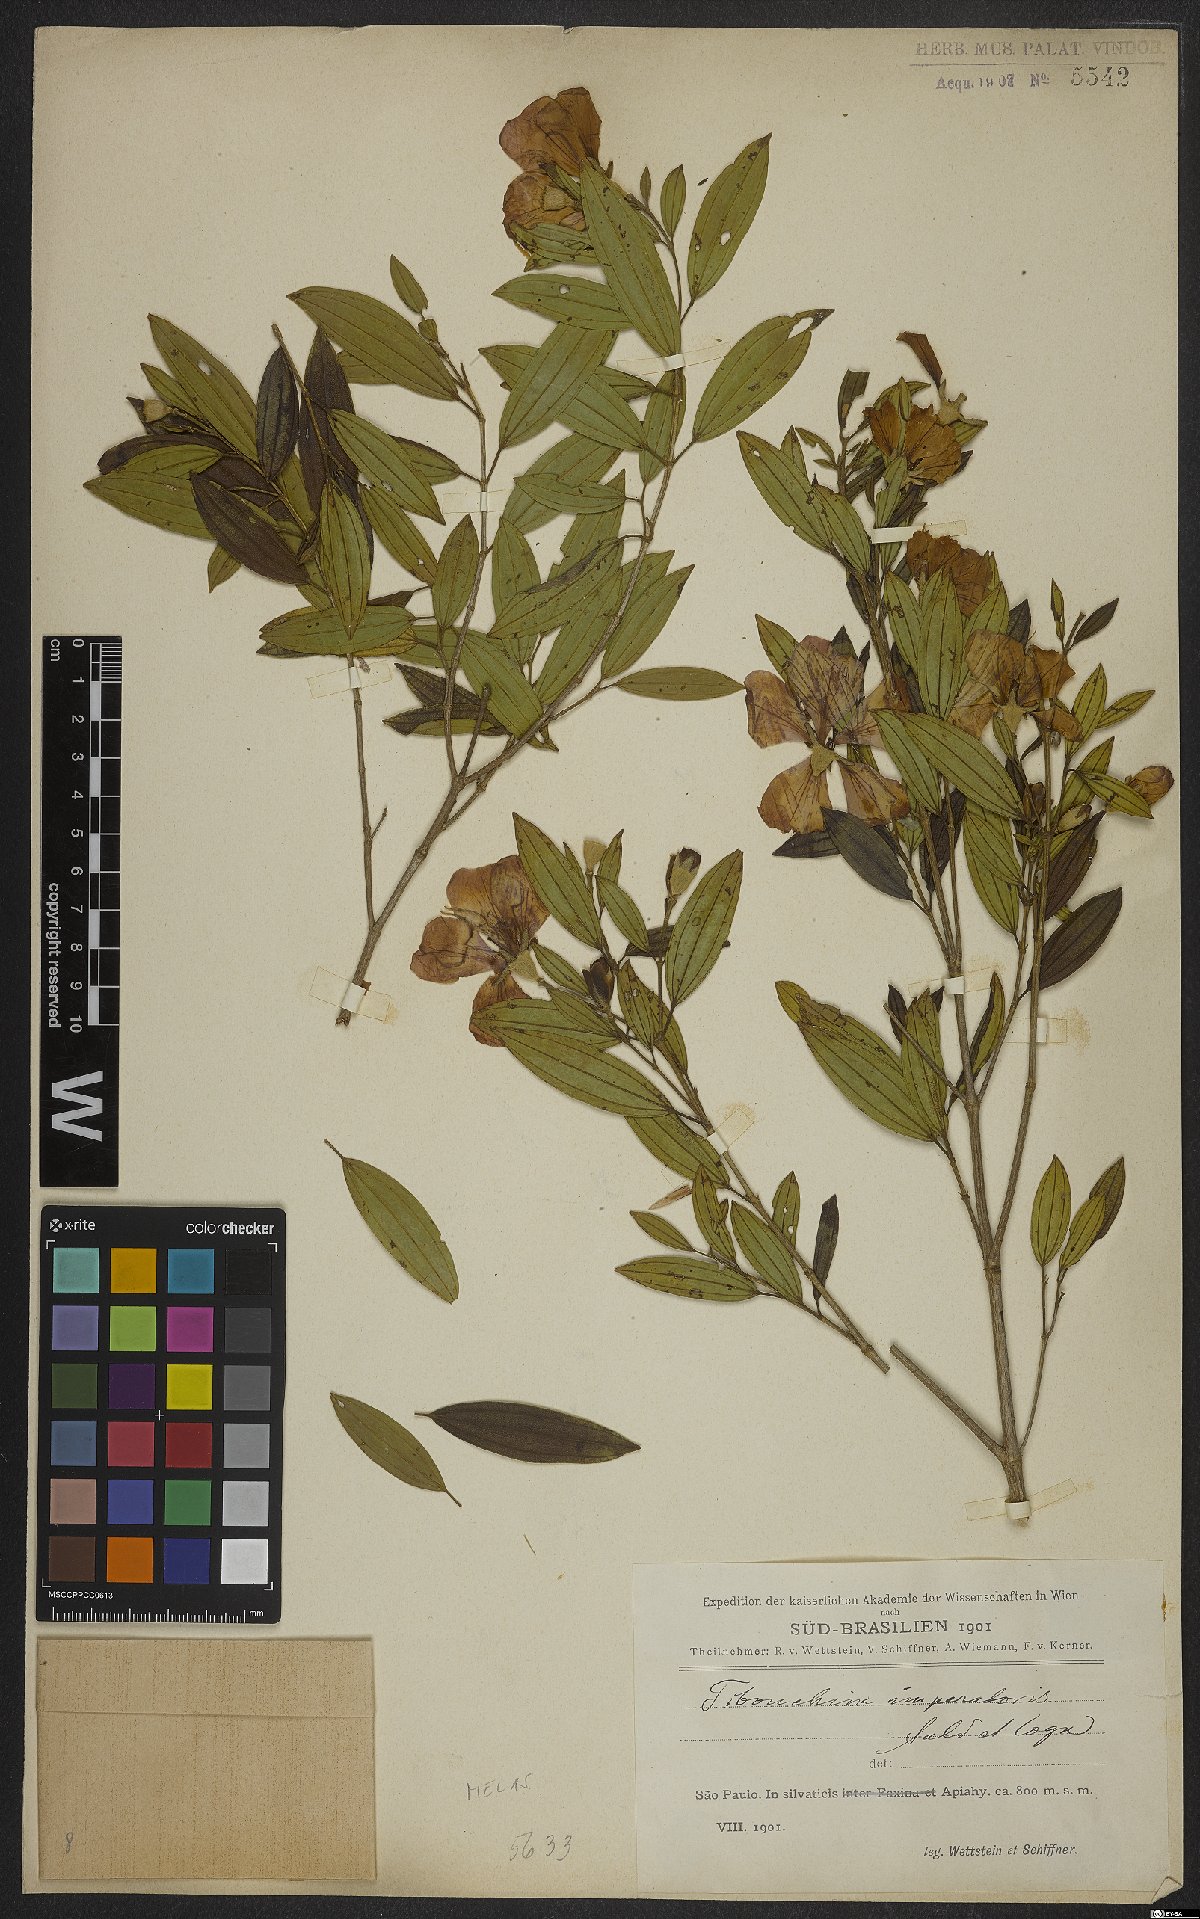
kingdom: Plantae
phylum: Tracheophyta
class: Magnoliopsida
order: Myrtales
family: Melastomataceae
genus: Pleroma
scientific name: Pleroma sellowianum
